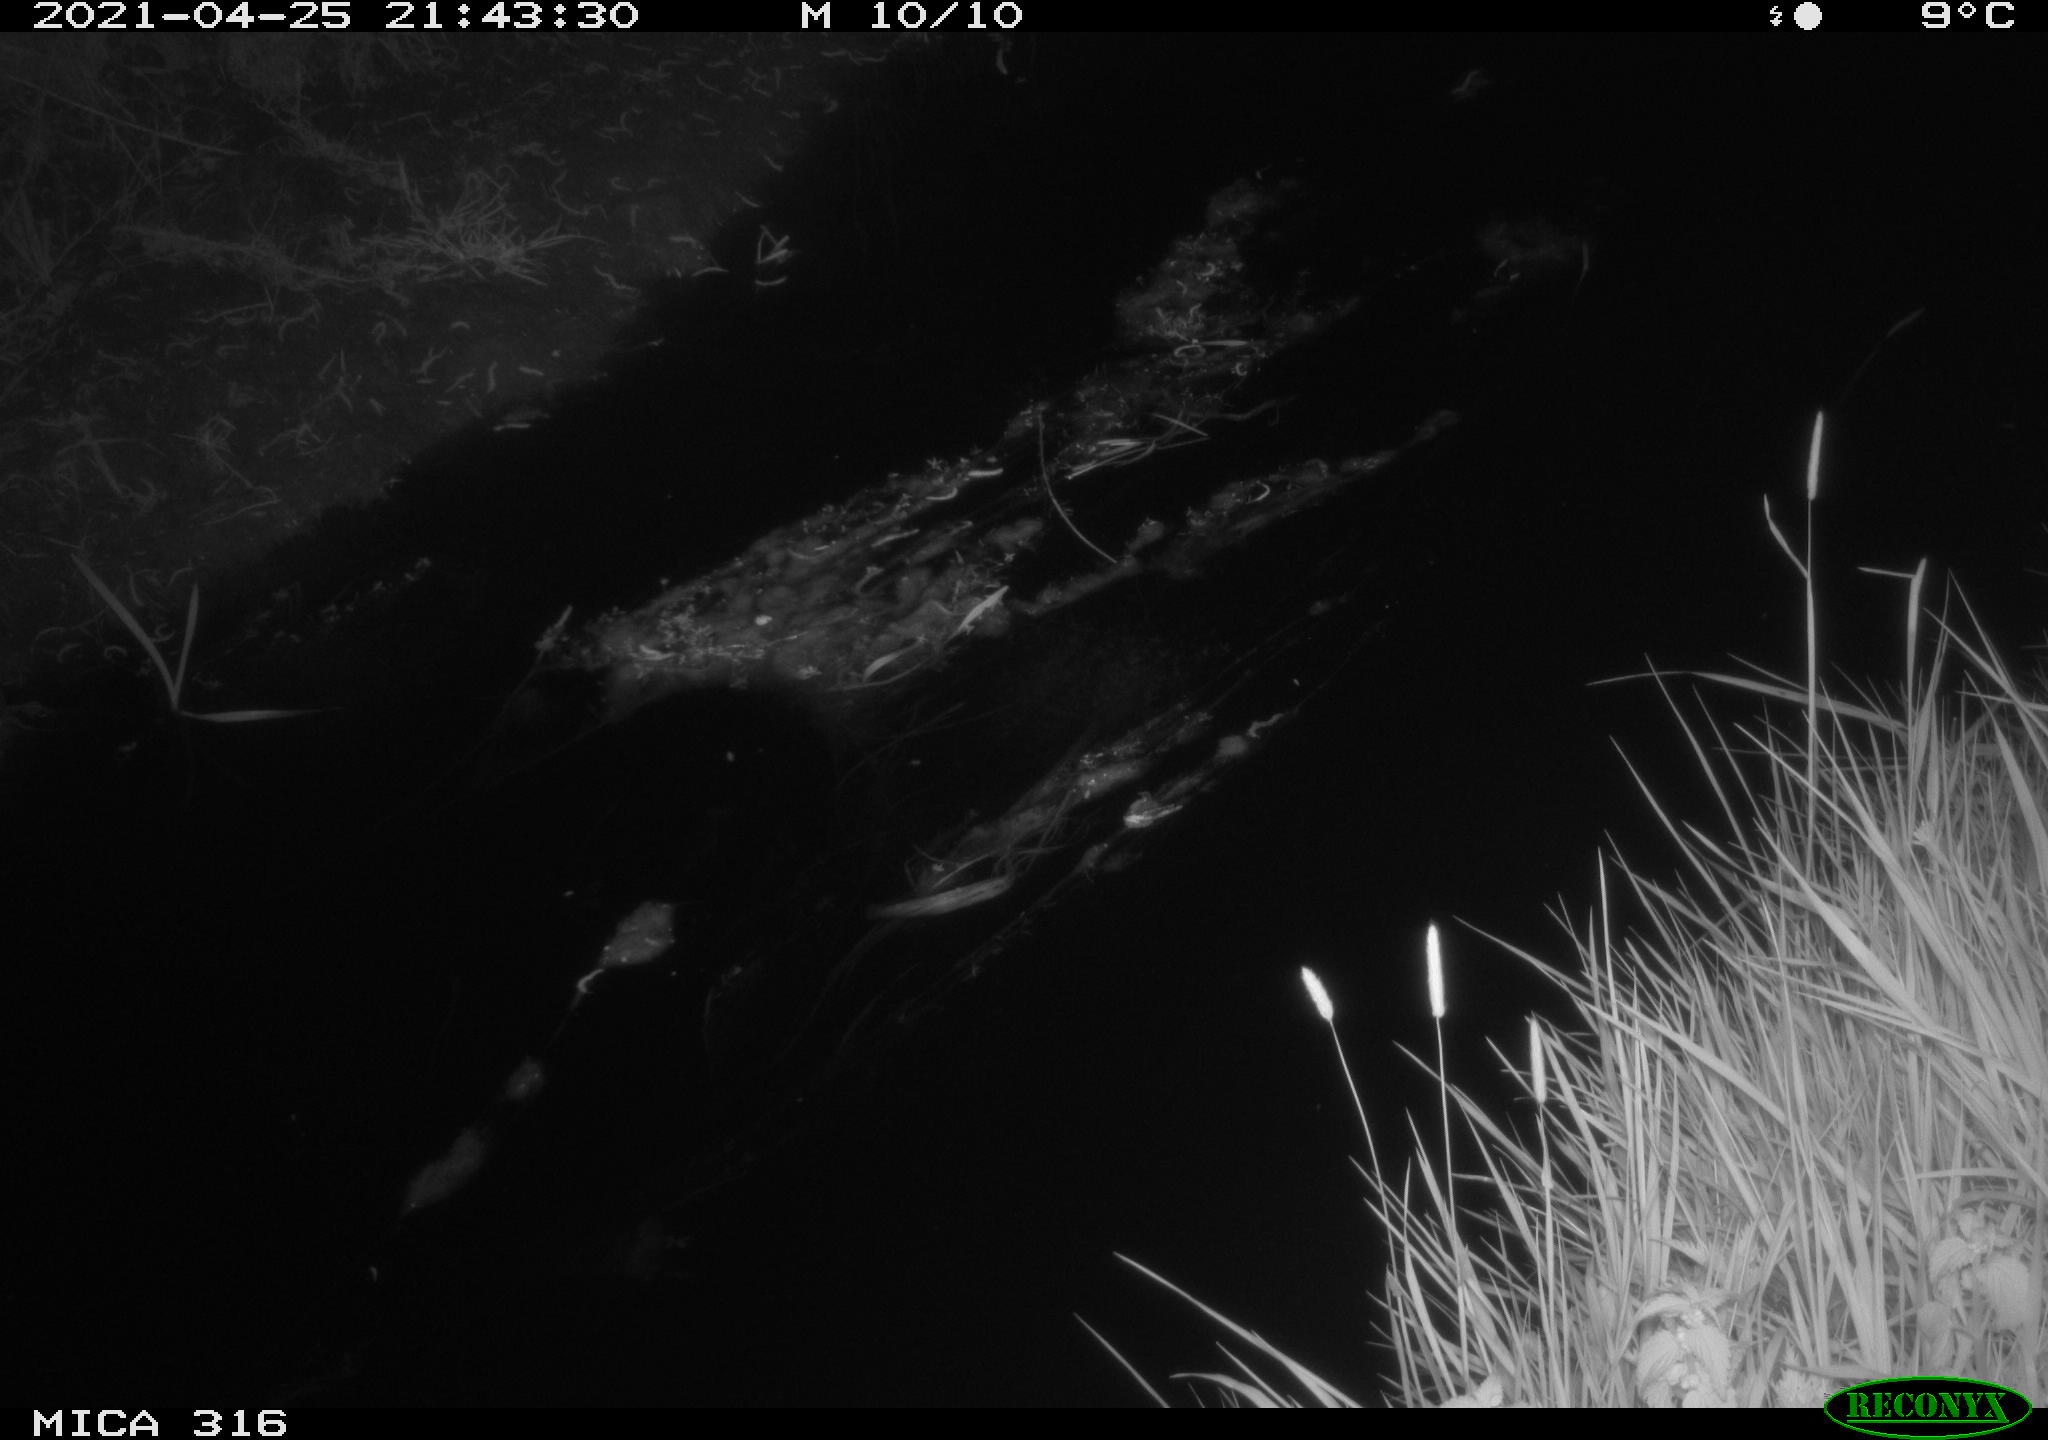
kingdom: Animalia
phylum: Chordata
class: Aves
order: Anseriformes
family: Anatidae
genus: Anas
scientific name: Anas platyrhynchos
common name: Mallard
